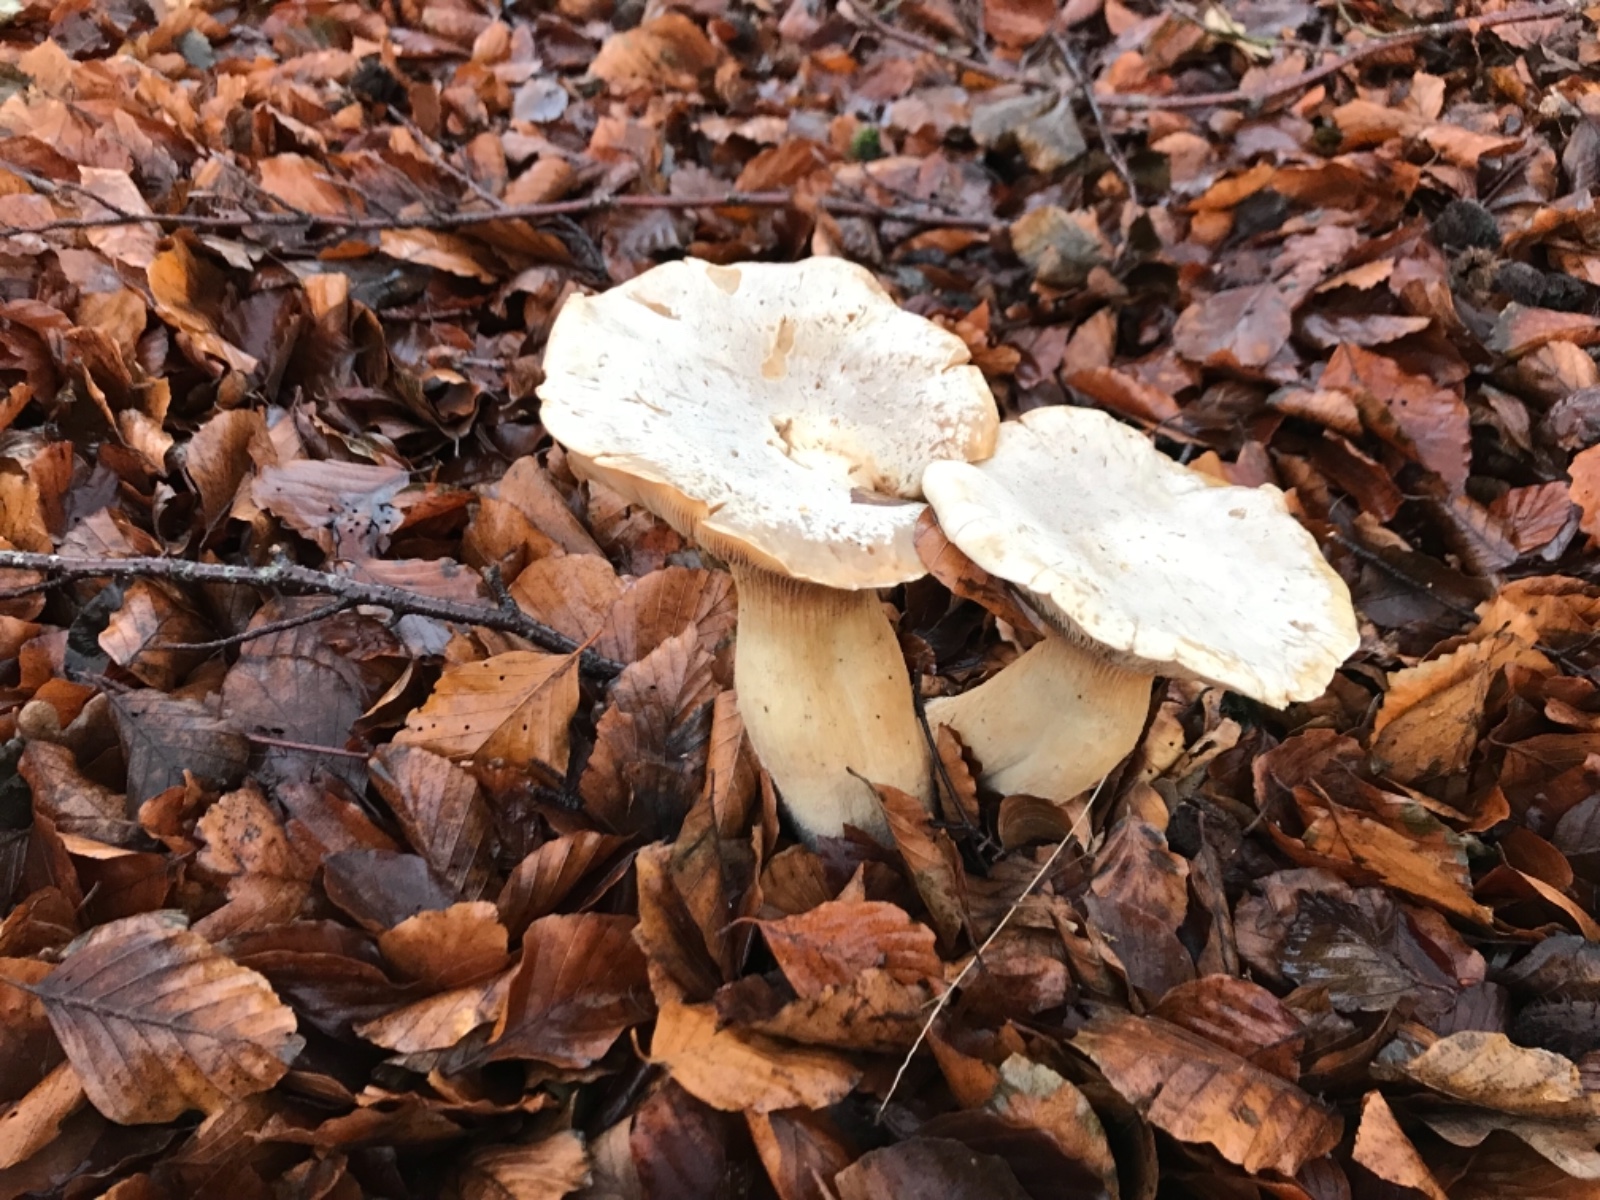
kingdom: Fungi
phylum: Basidiomycota
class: Agaricomycetes
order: Agaricales
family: Tricholomataceae
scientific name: Tricholomataceae
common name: ridderhatfamilien
